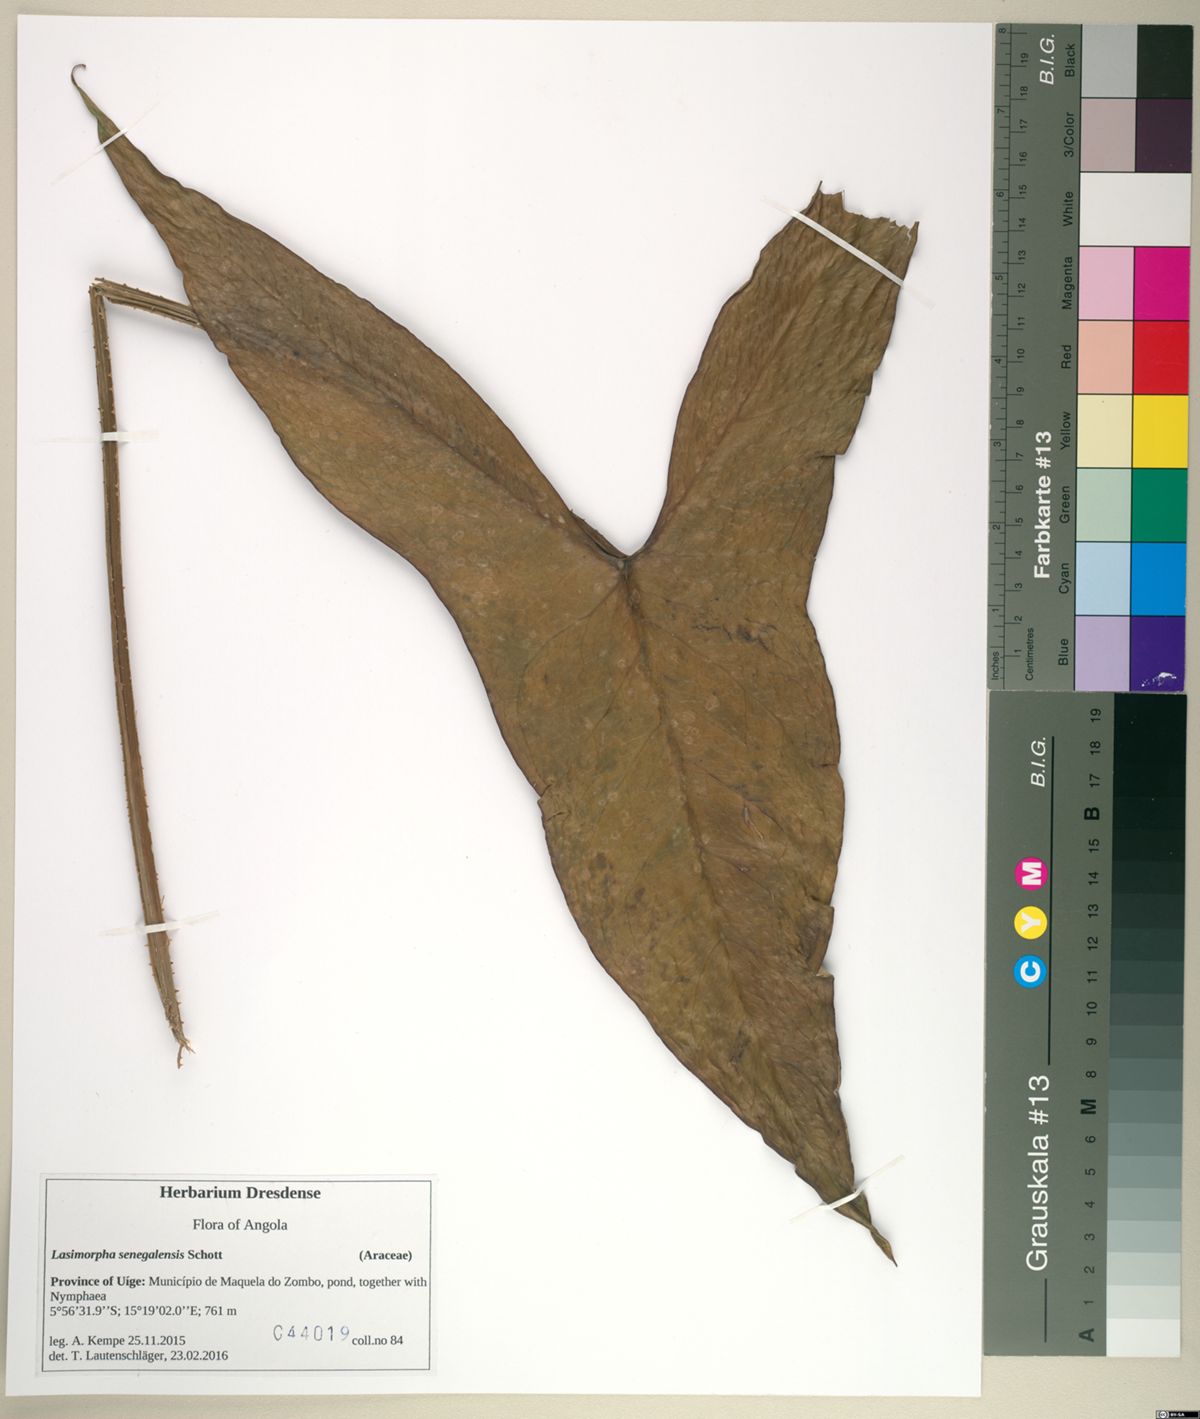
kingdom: Plantae
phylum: Tracheophyta
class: Liliopsida
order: Alismatales
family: Araceae
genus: Lasimorpha
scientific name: Lasimorpha senegalensis
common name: Swamp arum
